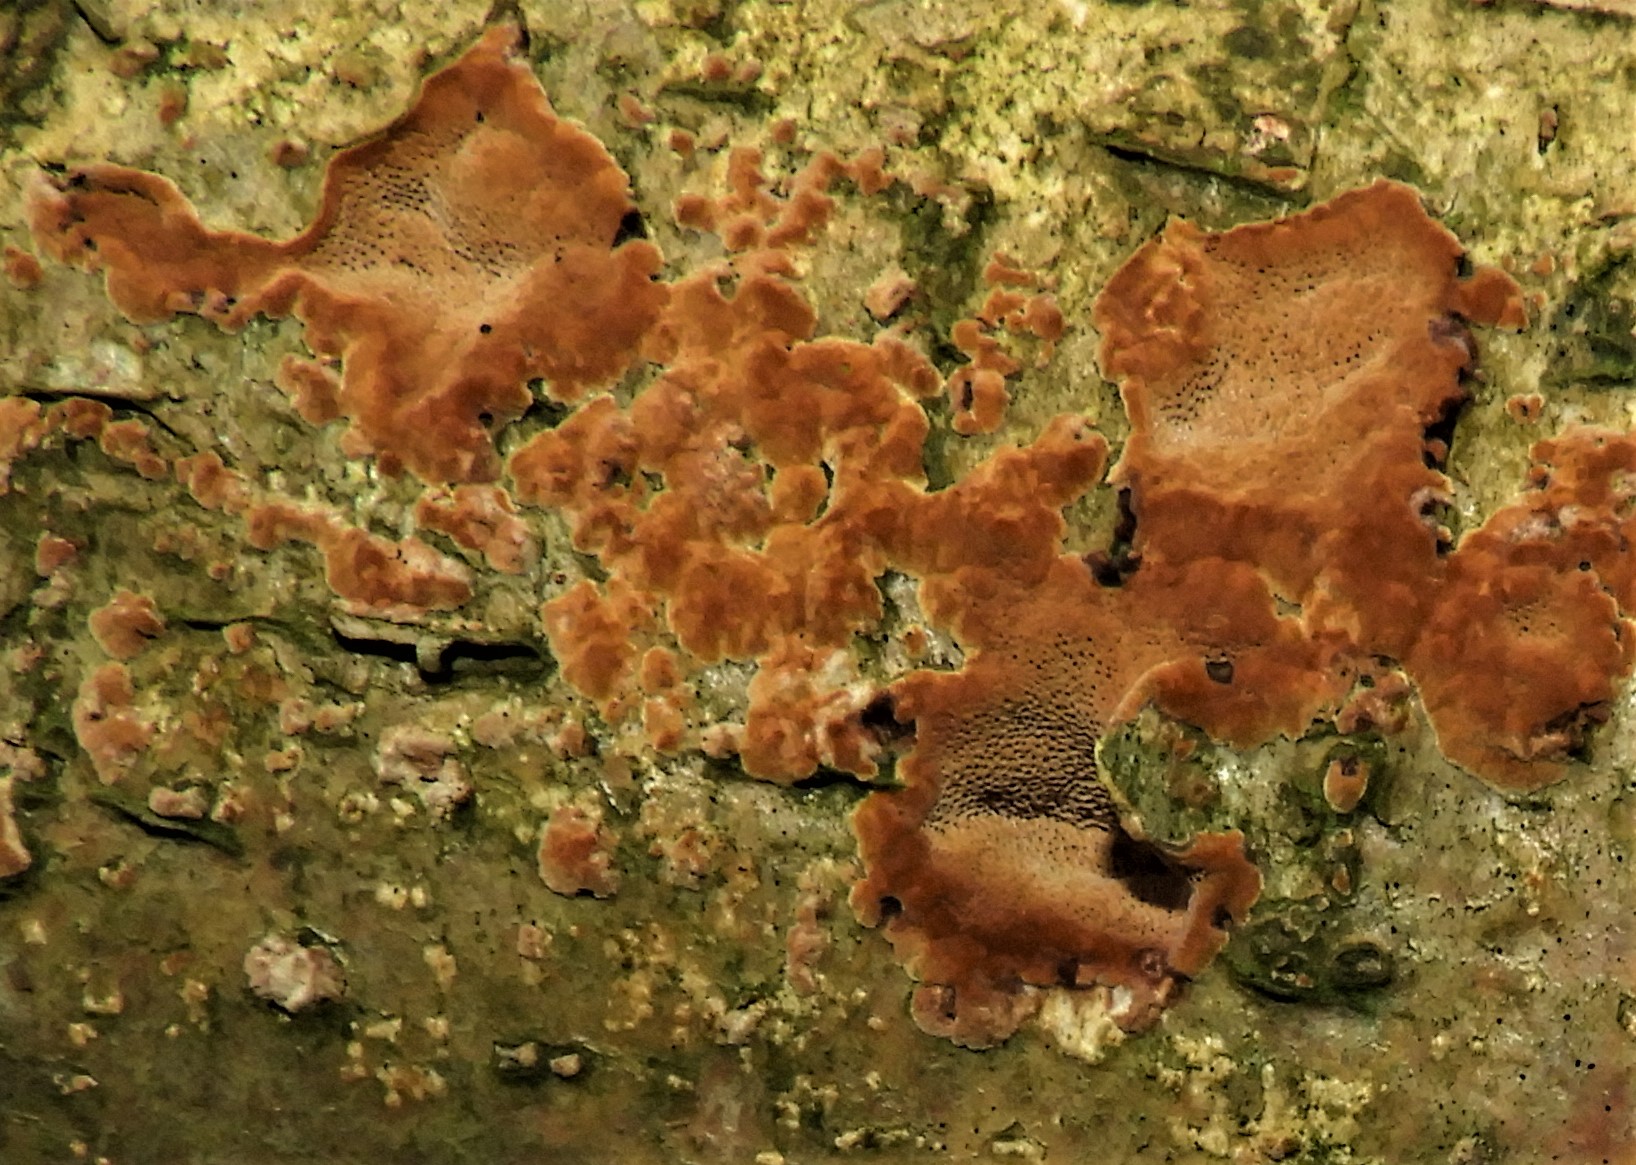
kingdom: Fungi
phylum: Basidiomycota
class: Agaricomycetes
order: Hymenochaetales
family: Hymenochaetaceae
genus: Fuscoporia
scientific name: Fuscoporia
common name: Ildporesvamp
